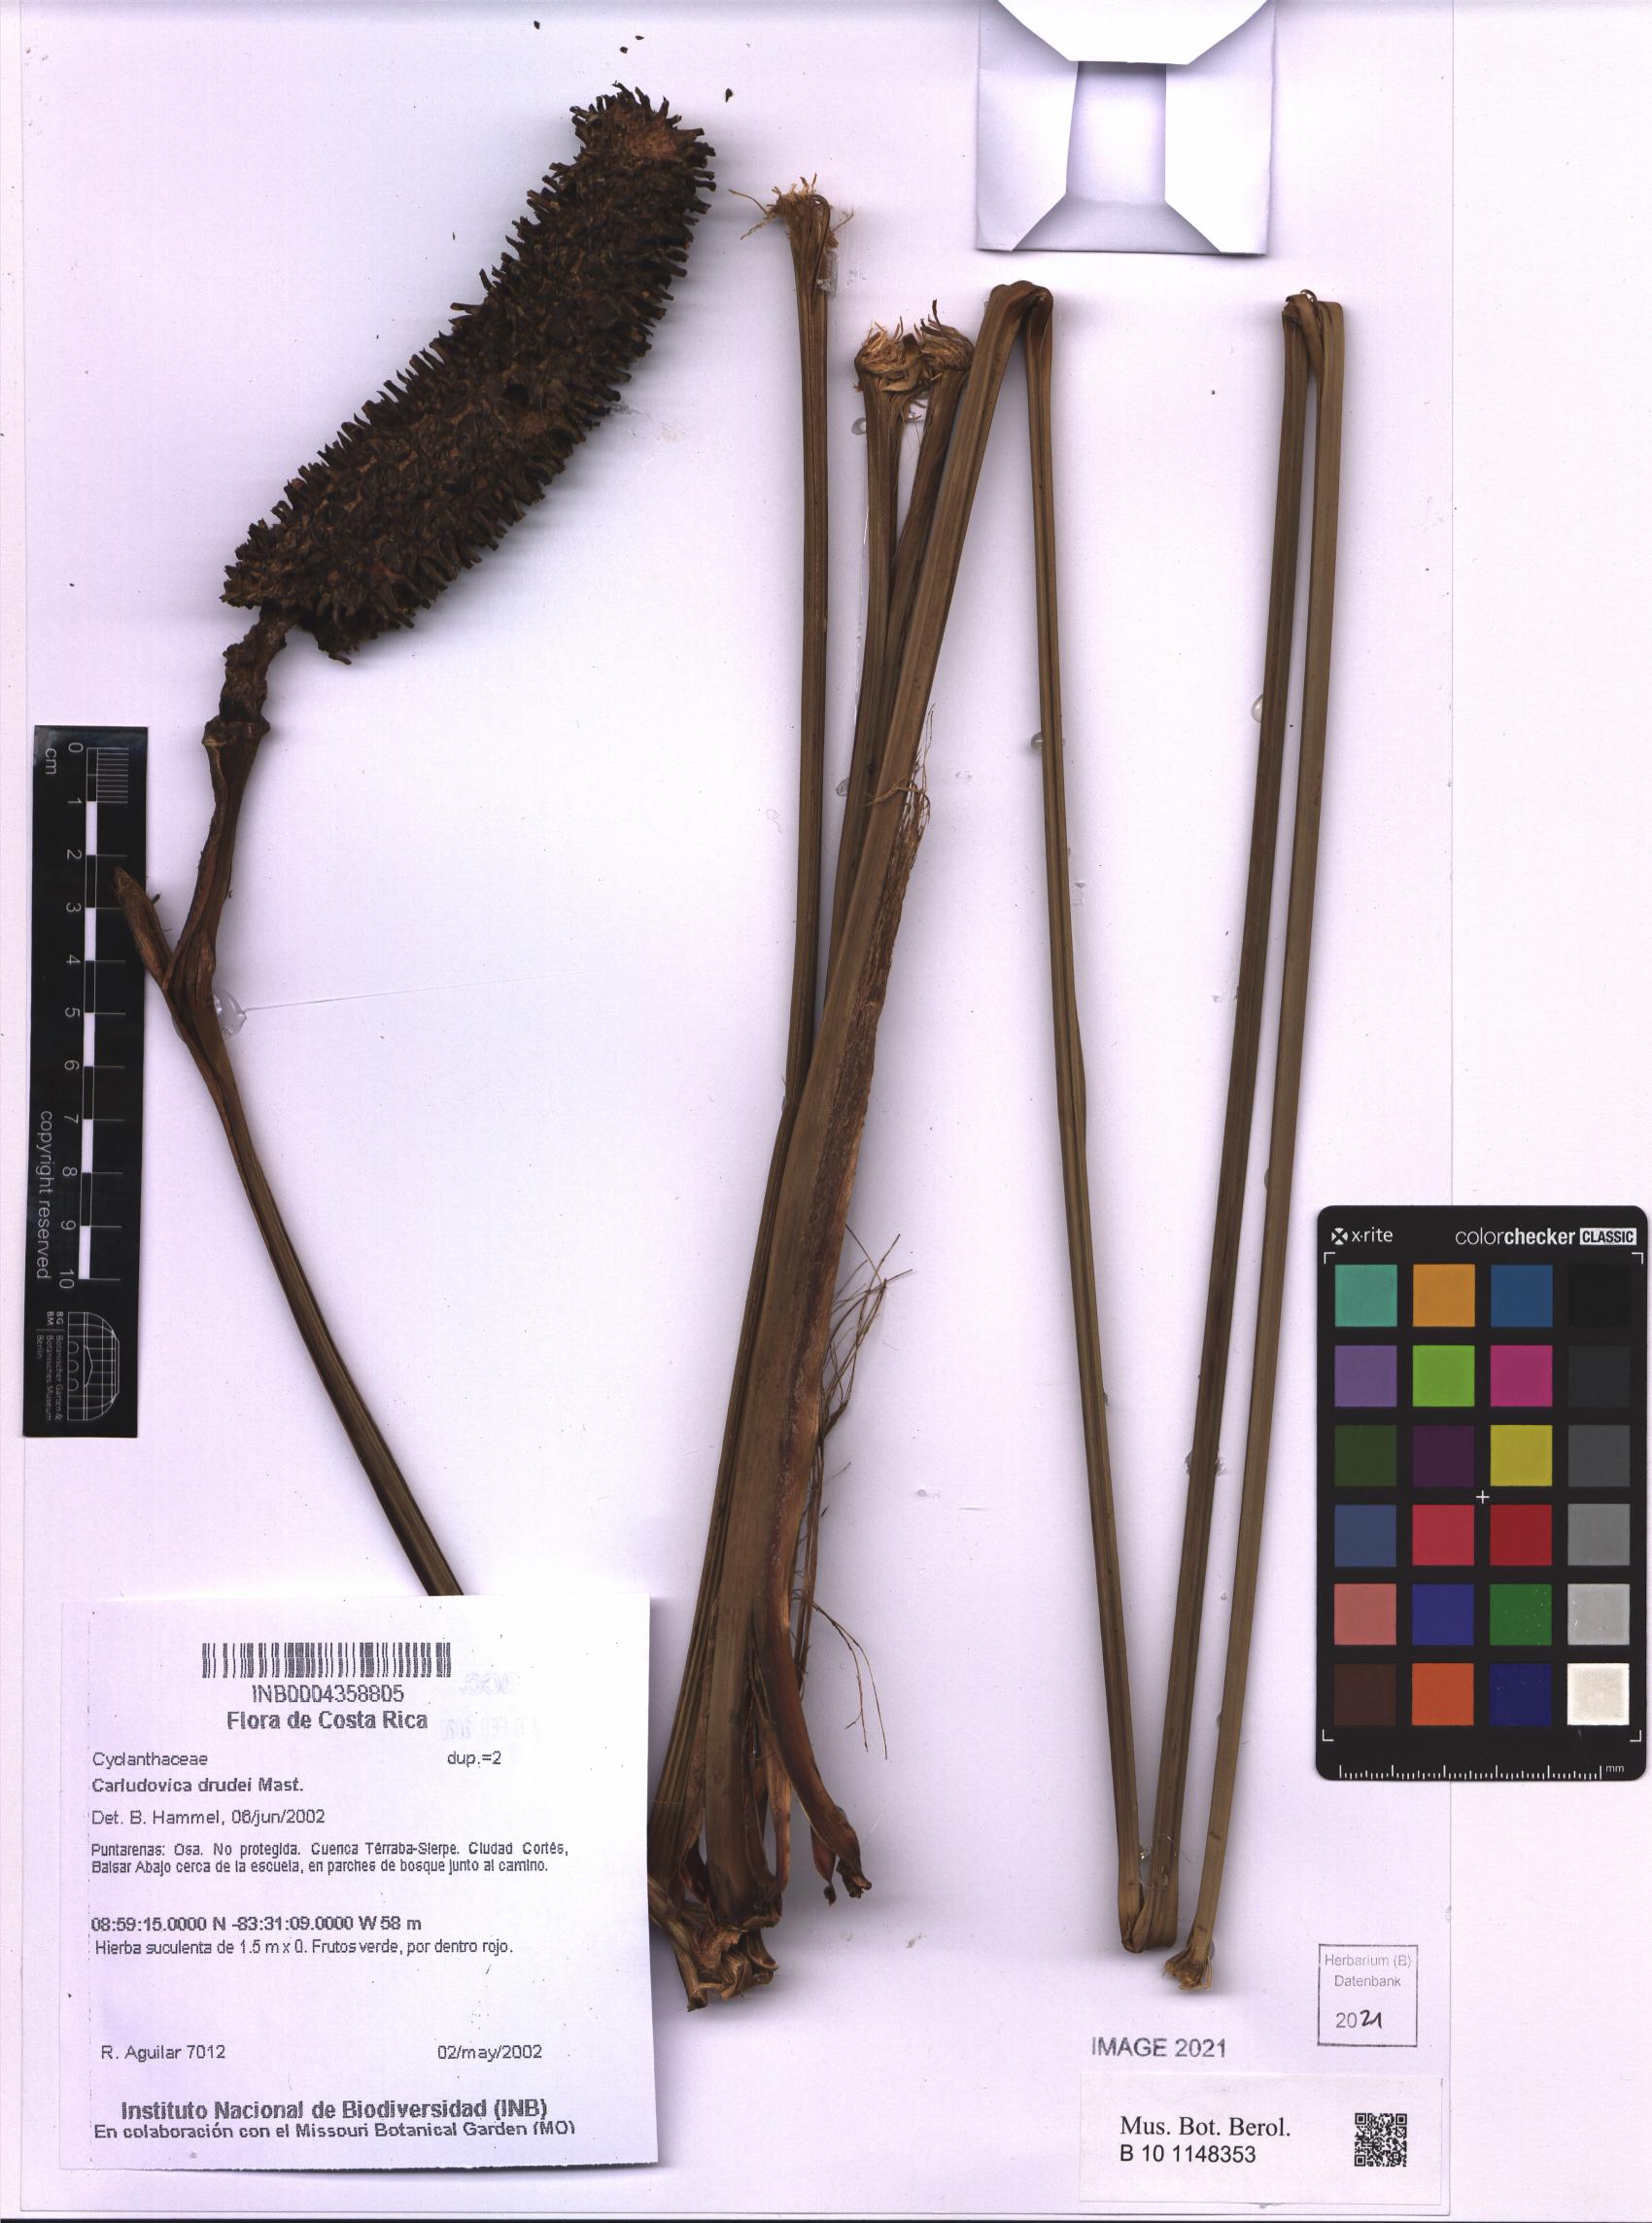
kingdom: Plantae
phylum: Tracheophyta
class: Liliopsida
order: Pandanales
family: Cyclanthaceae
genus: Carludovica
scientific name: Carludovica drudei
